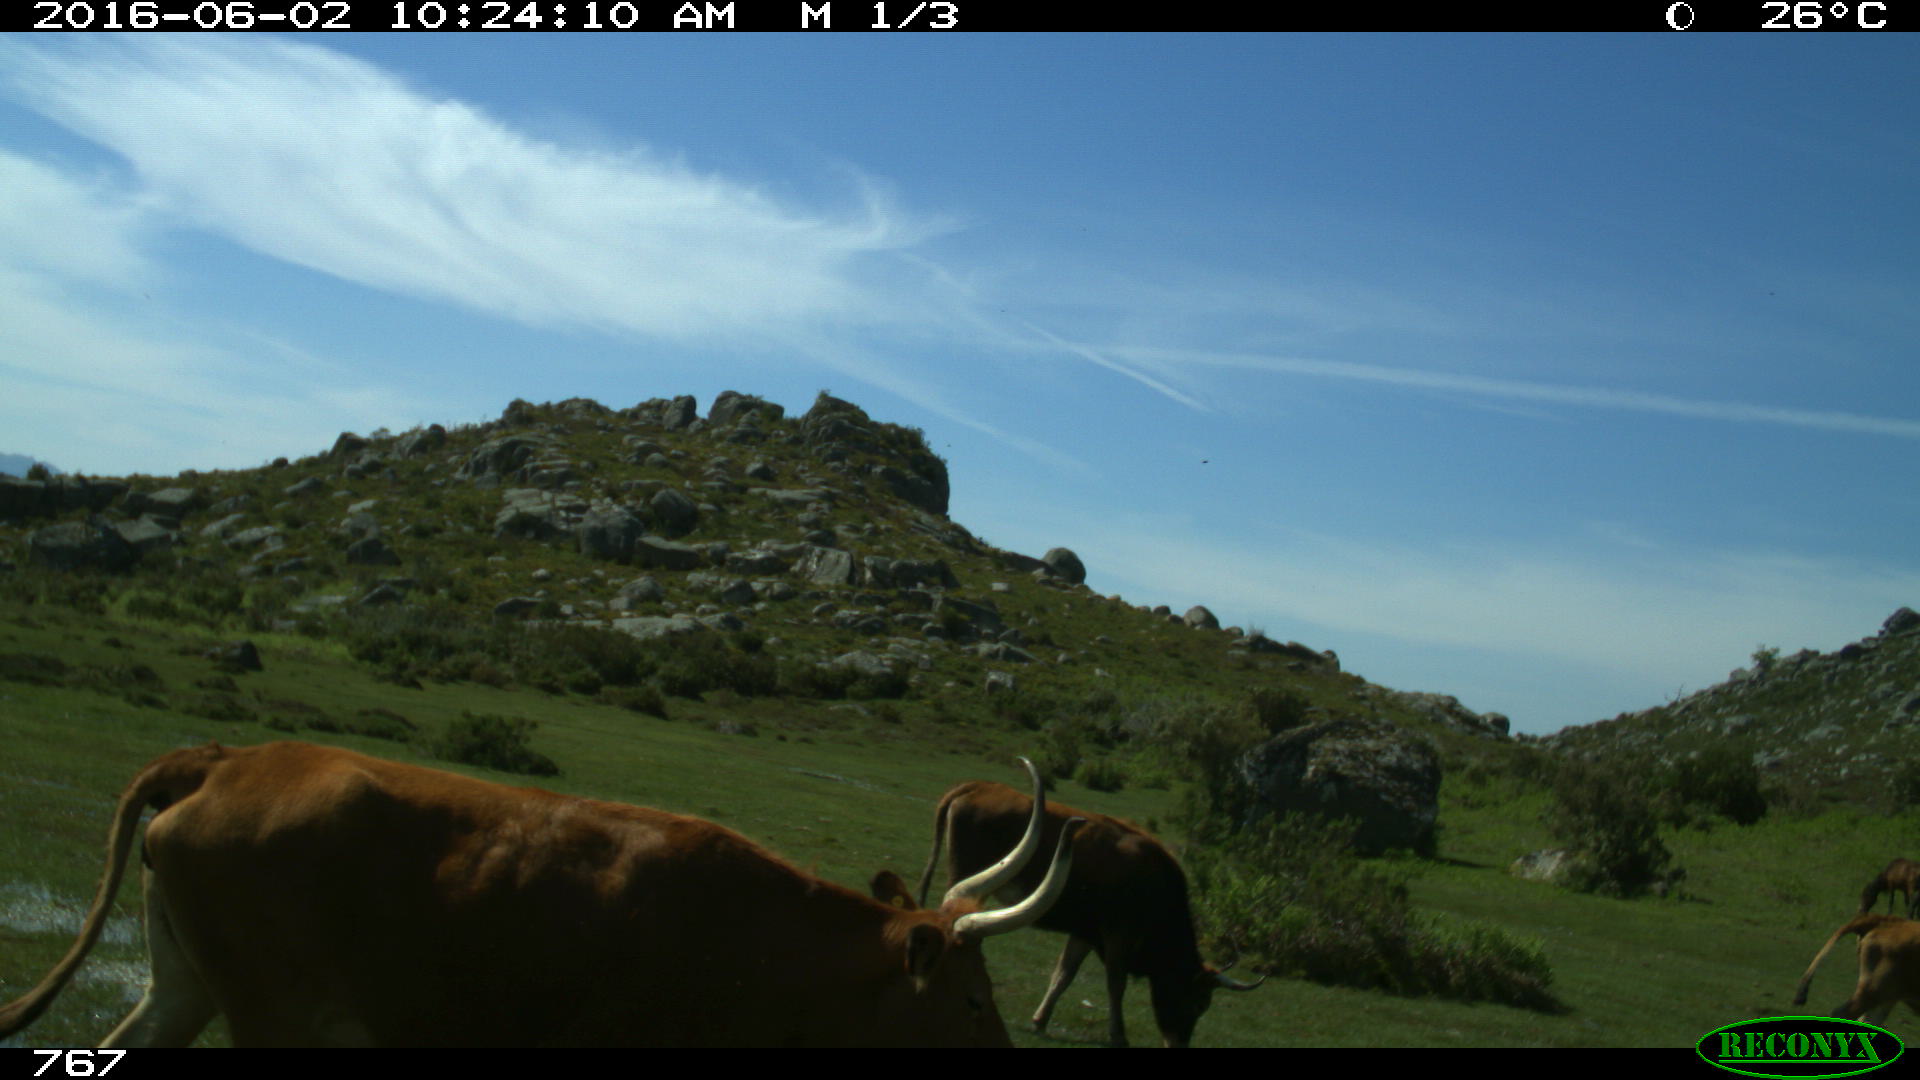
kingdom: Animalia
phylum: Chordata
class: Mammalia
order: Artiodactyla
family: Bovidae
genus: Bos
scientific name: Bos taurus
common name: Domesticated cattle
